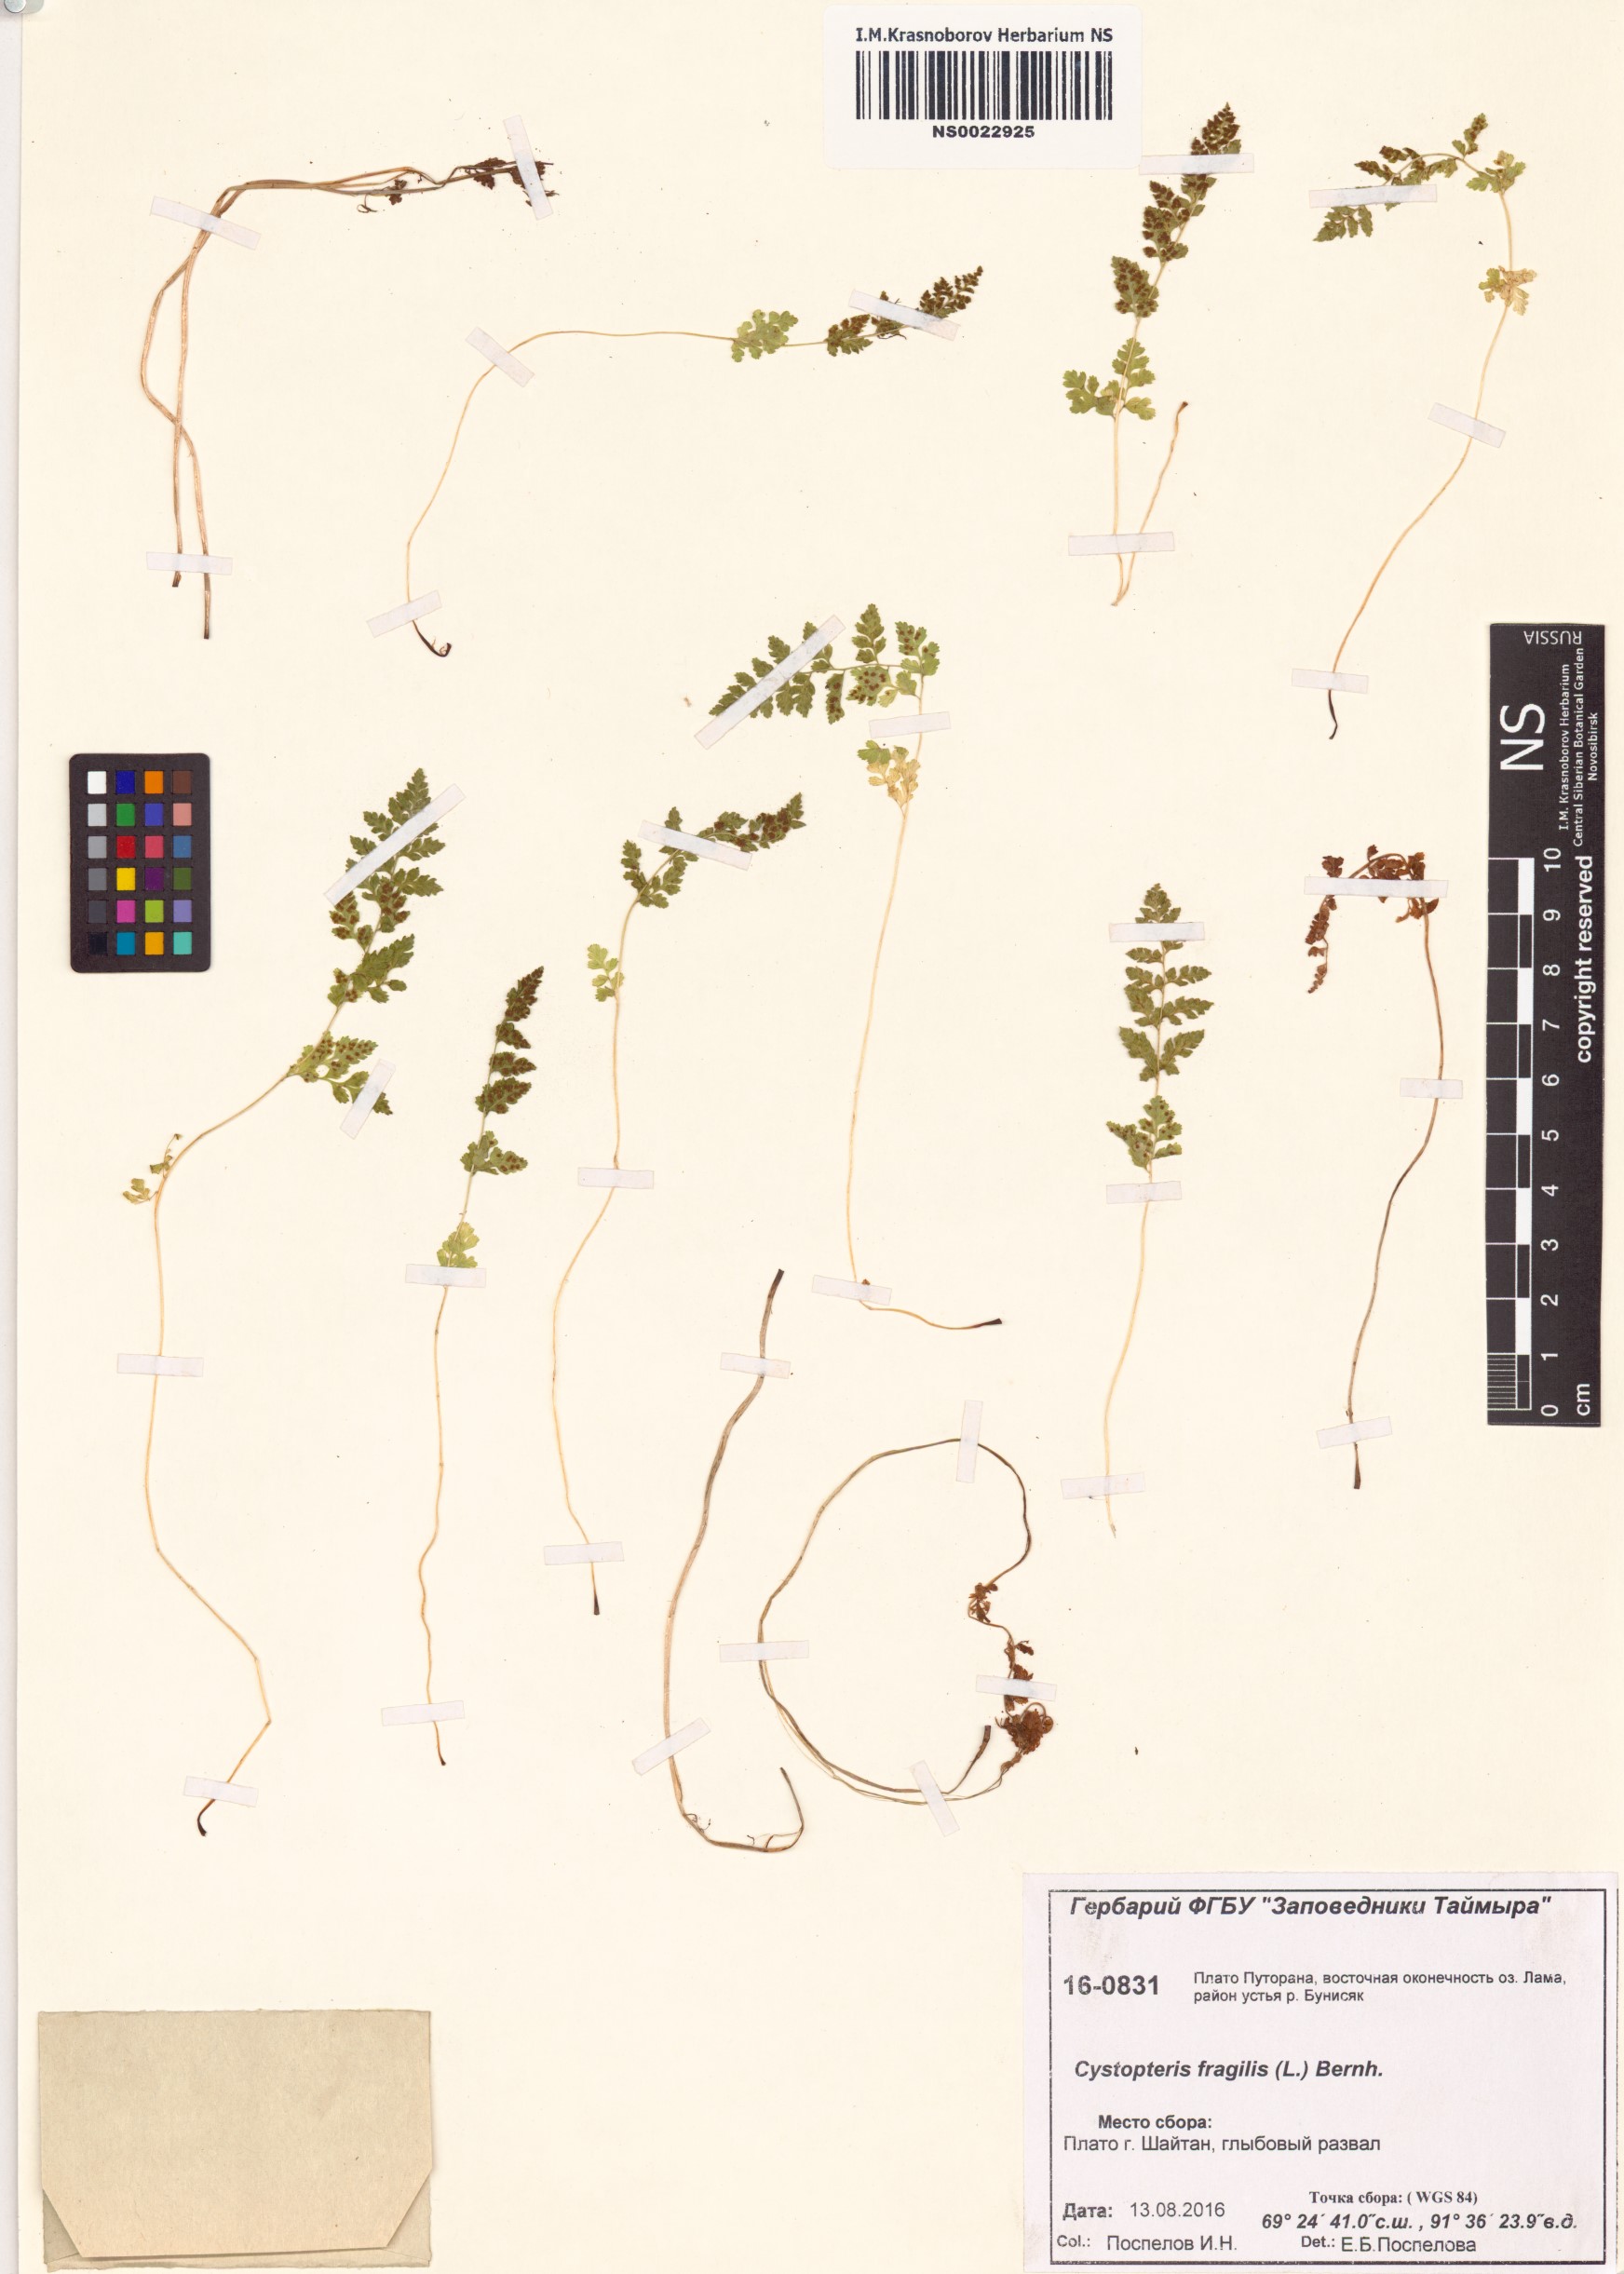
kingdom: Plantae
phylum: Tracheophyta
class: Polypodiopsida
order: Polypodiales
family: Cystopteridaceae
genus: Cystopteris
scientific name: Cystopteris fragilis
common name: Brittle bladder fern
